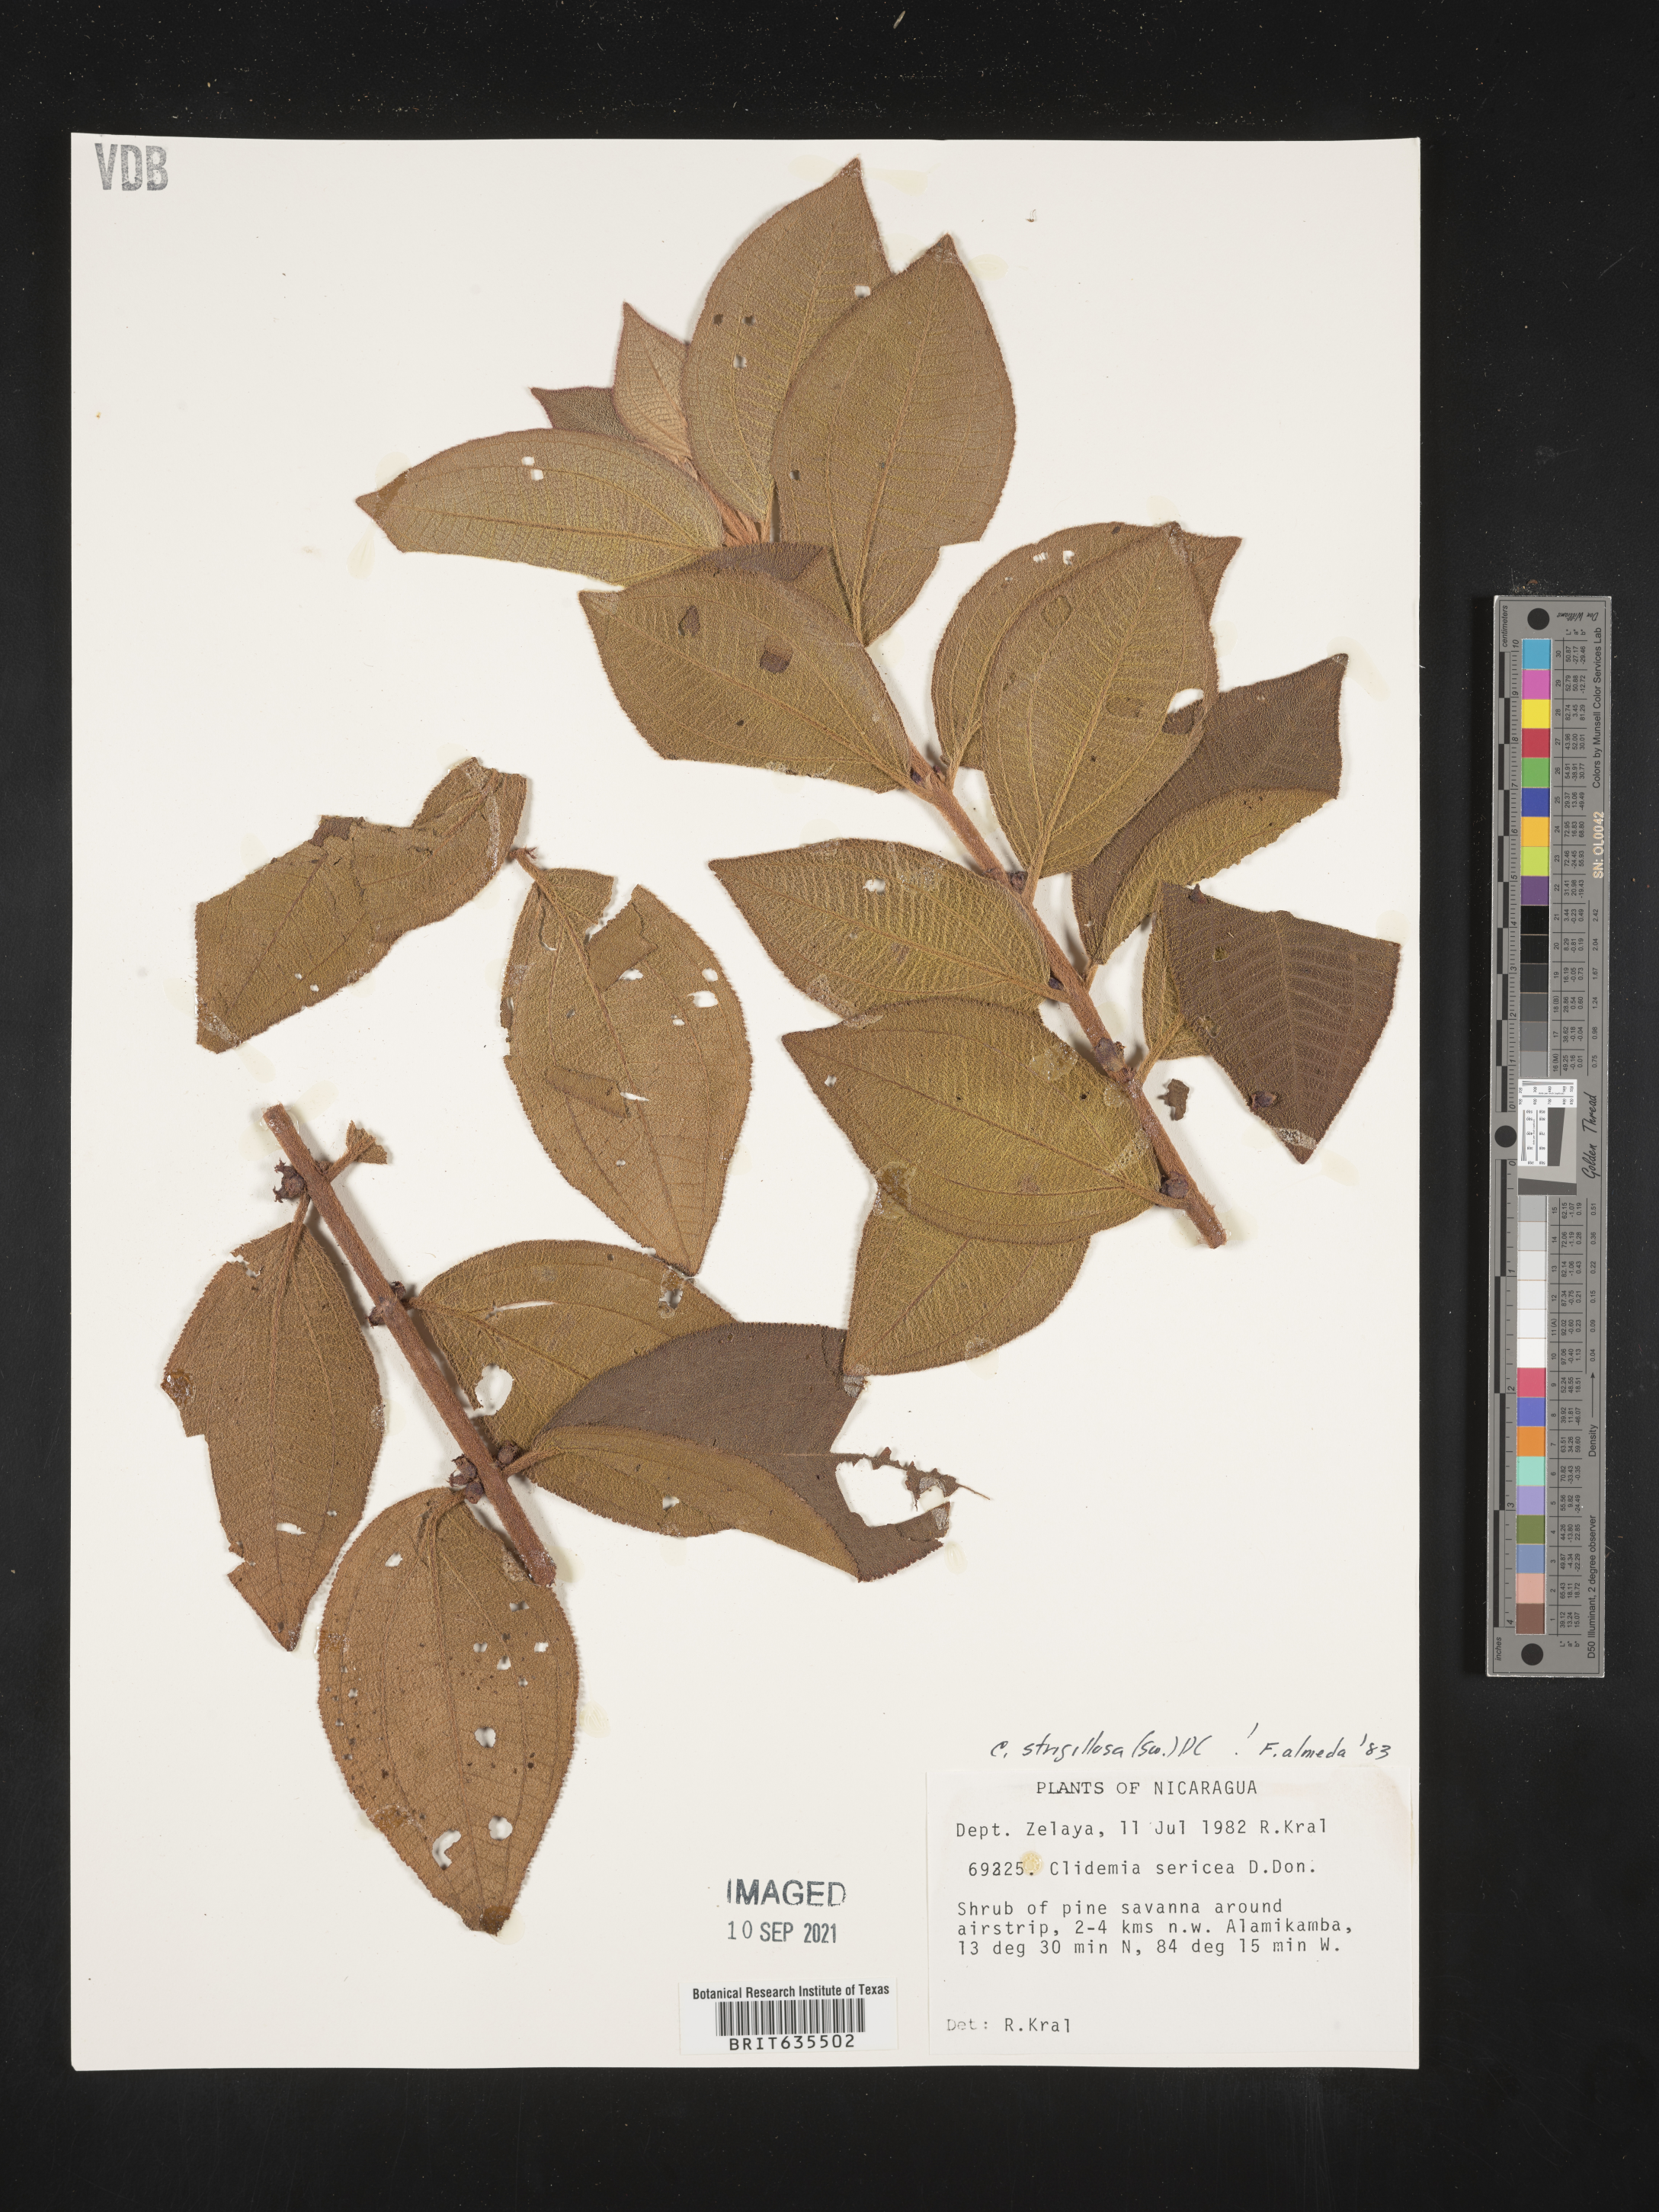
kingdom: Plantae
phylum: Tracheophyta
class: Magnoliopsida
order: Myrtales
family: Melastomataceae
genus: Miconia
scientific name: Miconia
